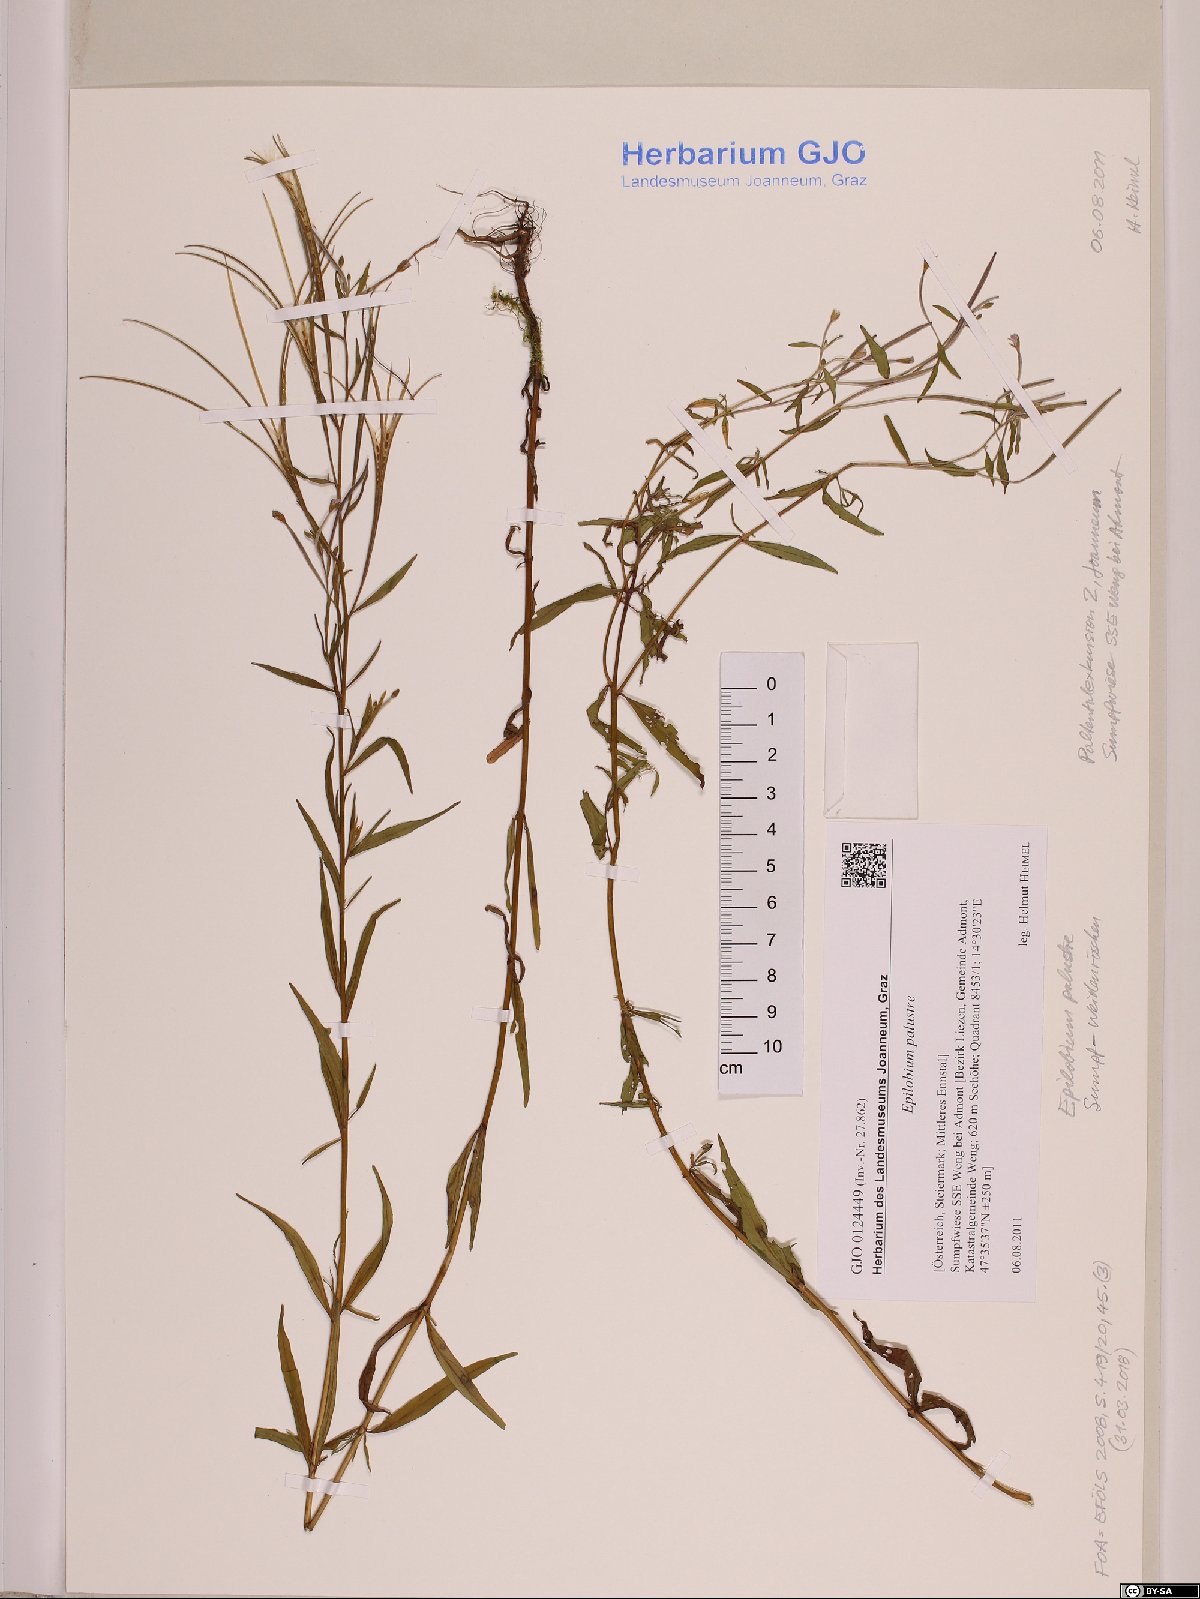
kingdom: Plantae
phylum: Tracheophyta
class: Magnoliopsida
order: Myrtales
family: Onagraceae
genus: Epilobium
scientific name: Epilobium palustre
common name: Marsh willowherb
